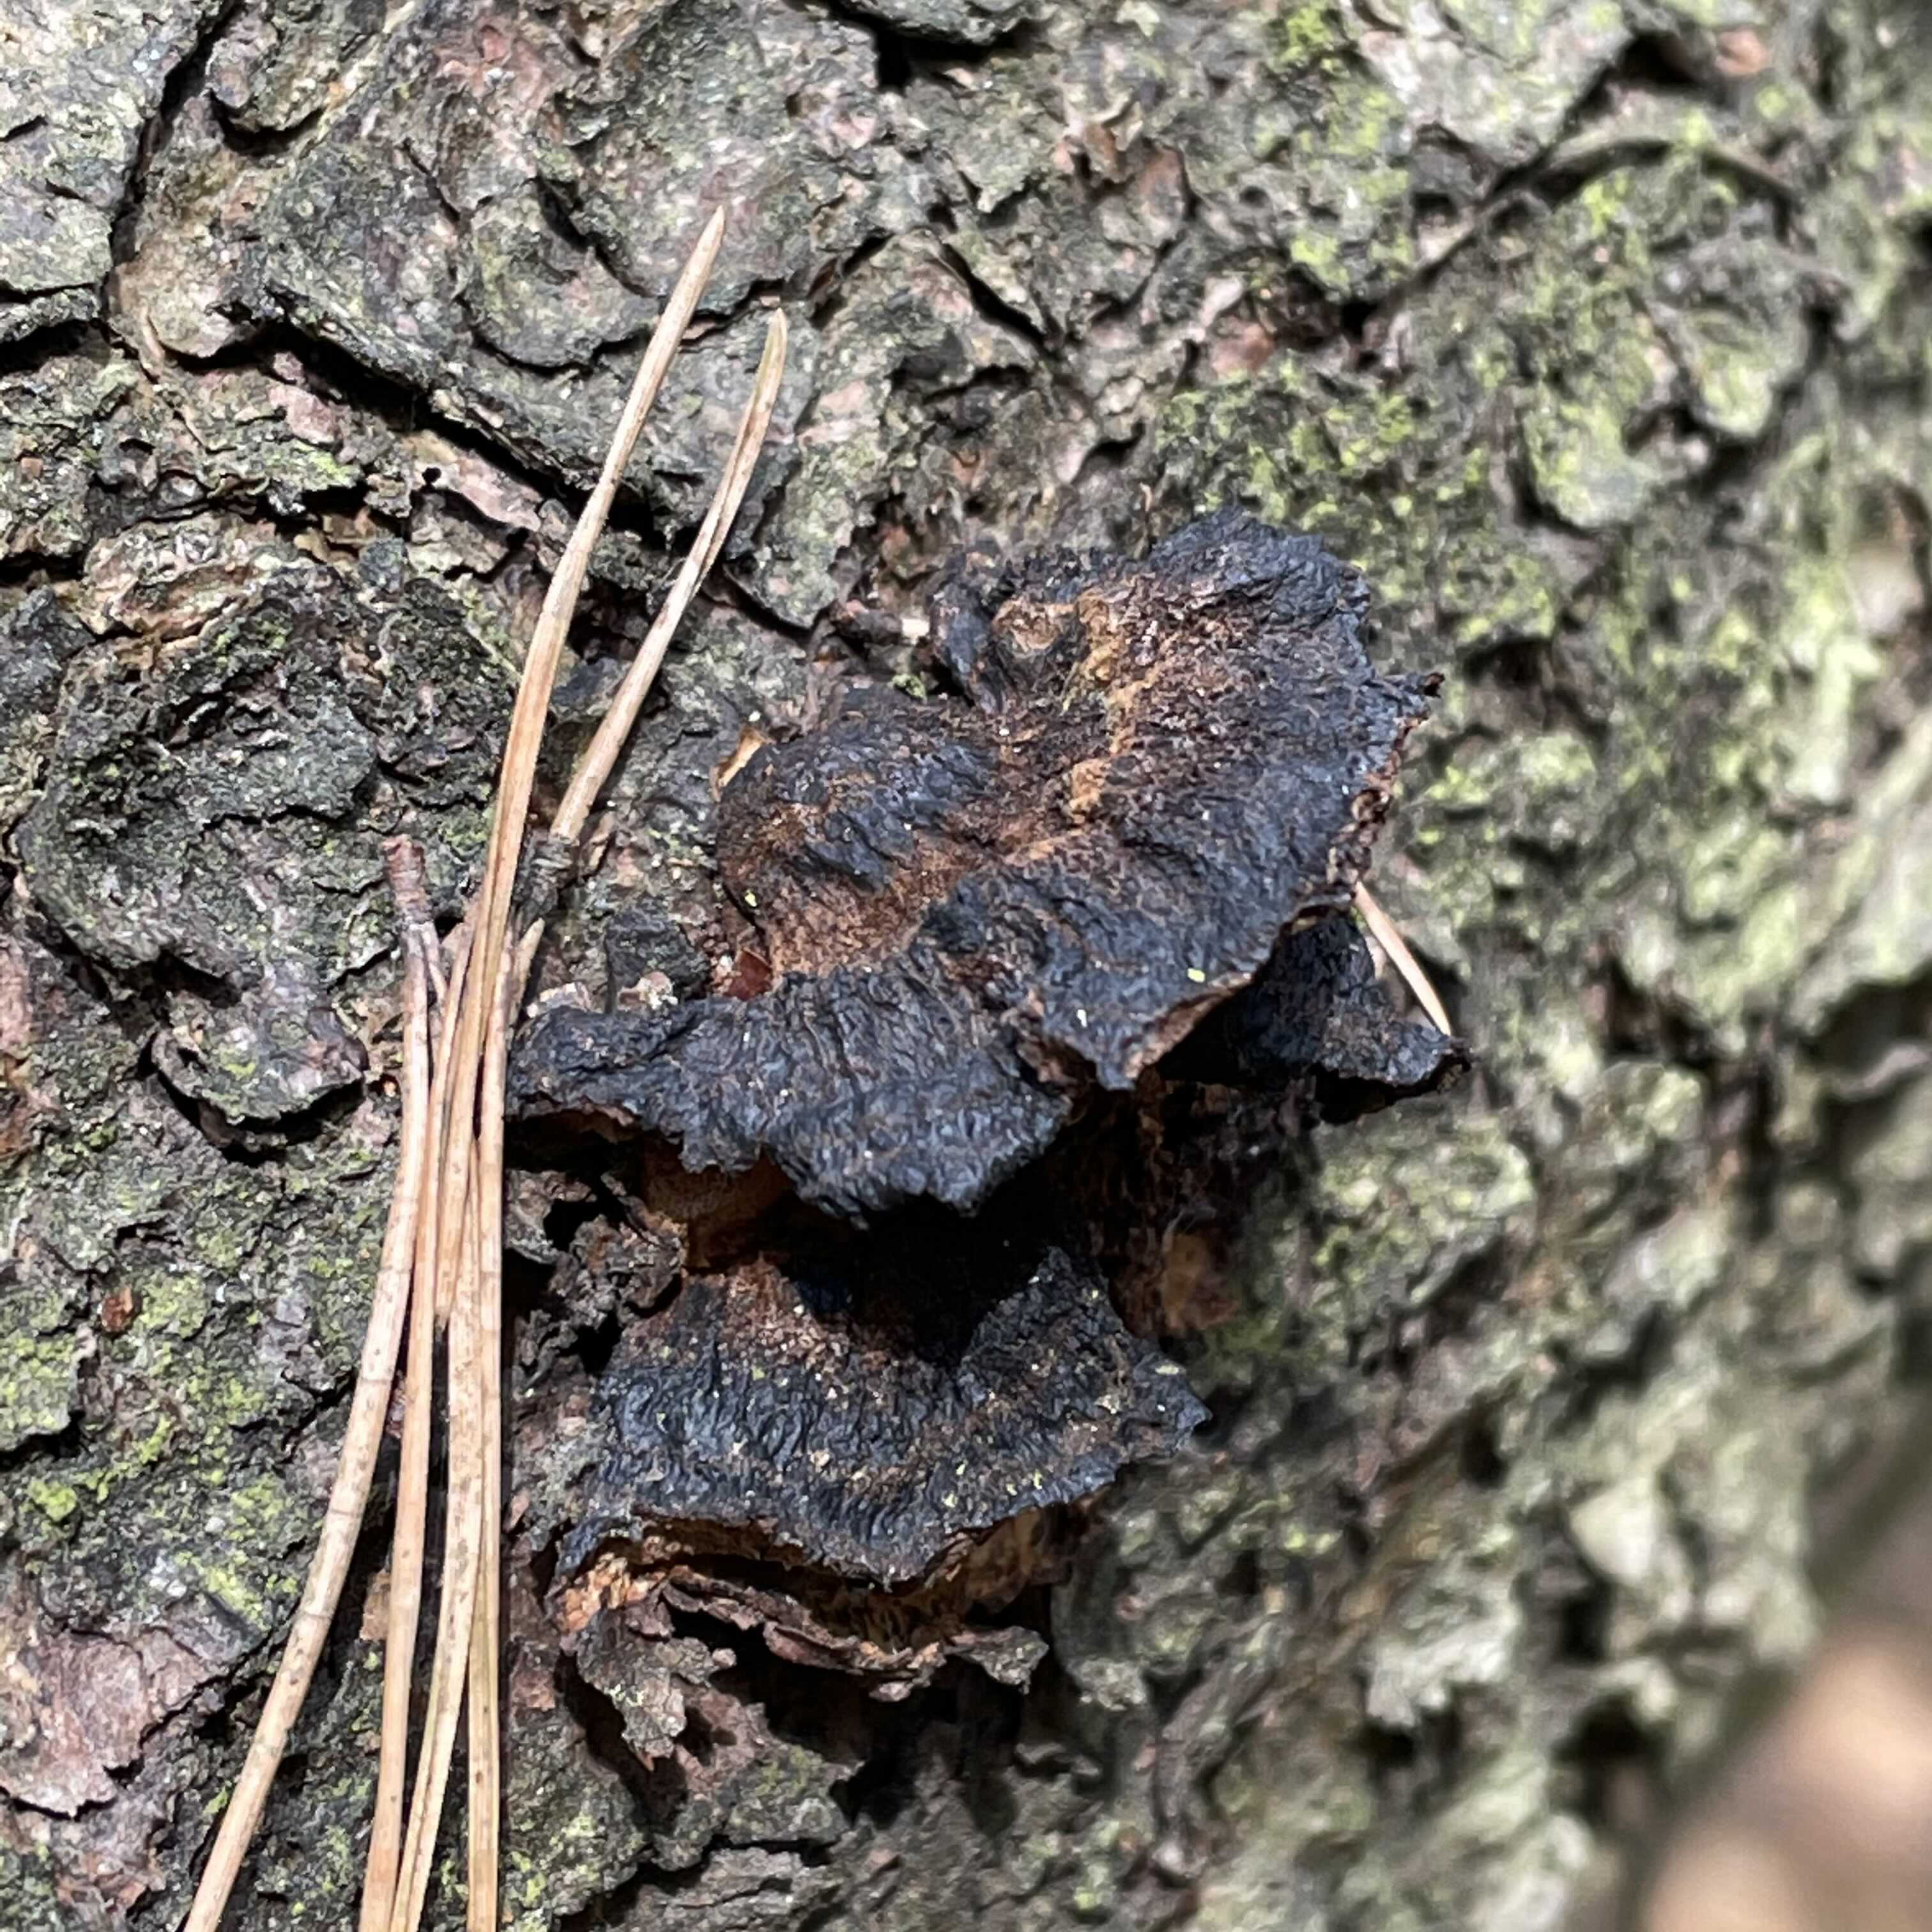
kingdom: Fungi
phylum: Basidiomycota
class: Agaricomycetes
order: Polyporales
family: Ischnodermataceae
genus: Ischnoderma
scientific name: Ischnoderma benzoinum
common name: gran-tjæreporesvamp
